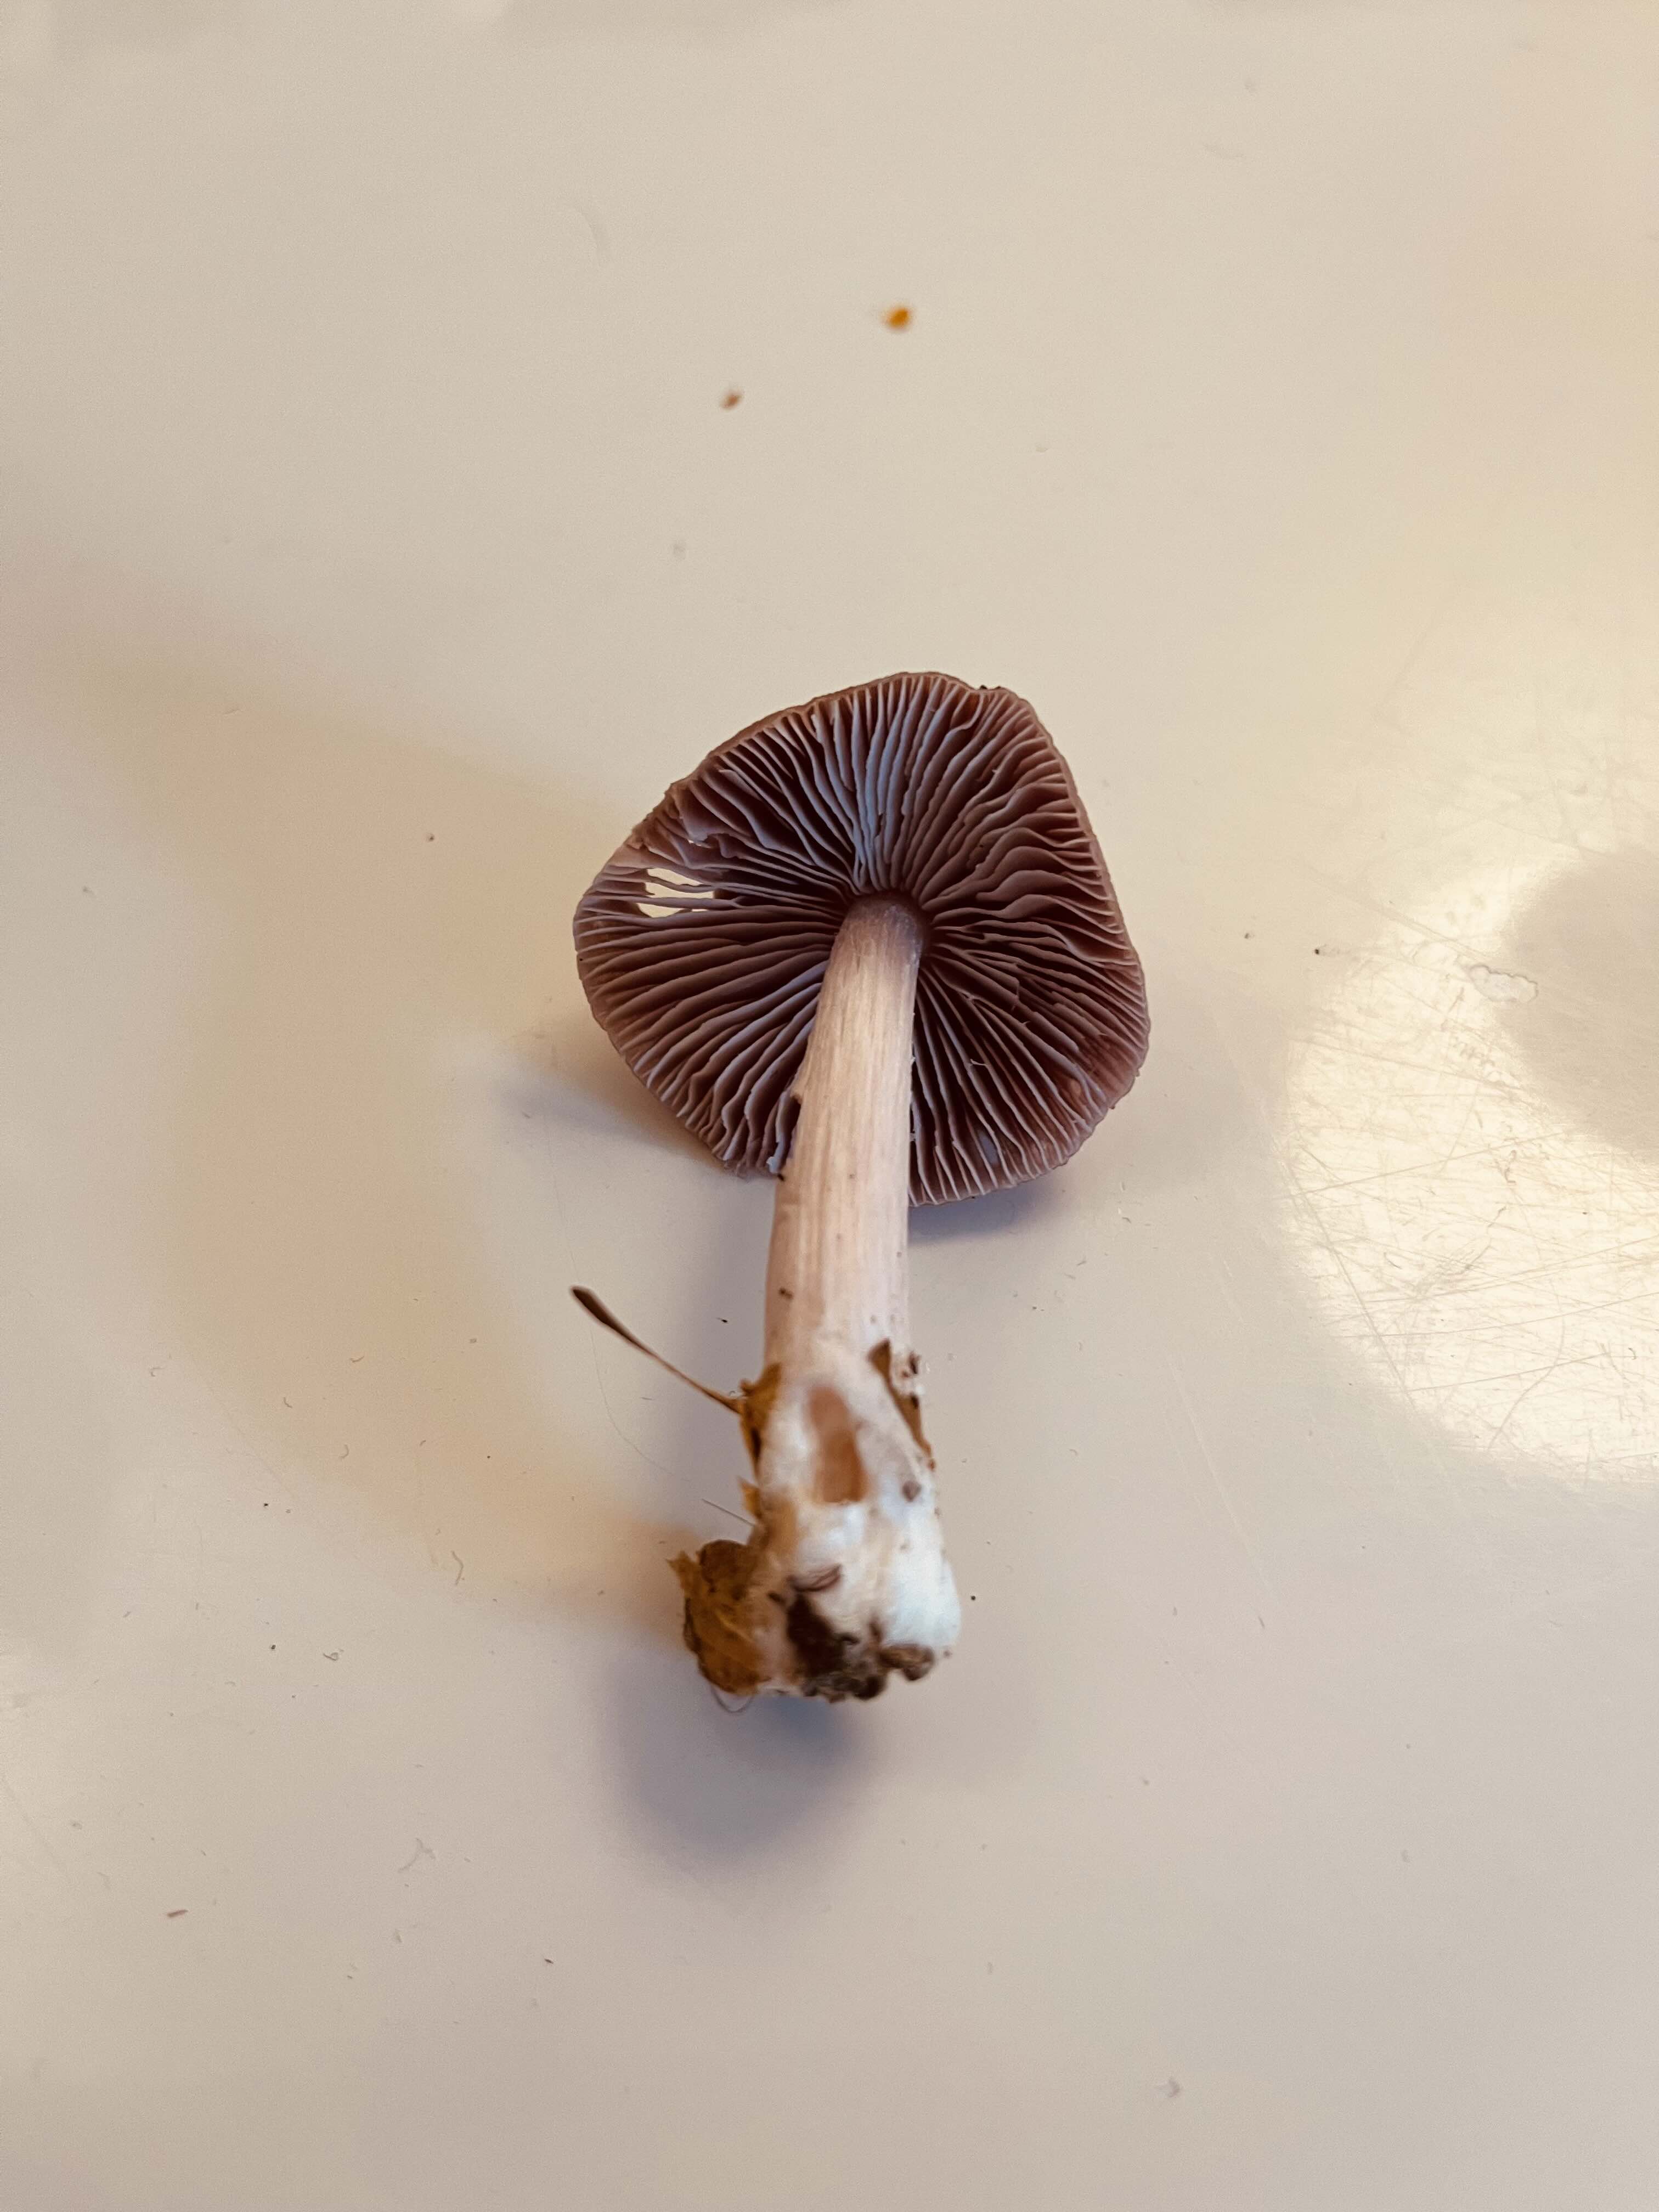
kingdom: Fungi
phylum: Basidiomycota
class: Agaricomycetes
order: Agaricales
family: Mycenaceae
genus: Mycena
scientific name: Mycena rosea
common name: rosa huesvamp
